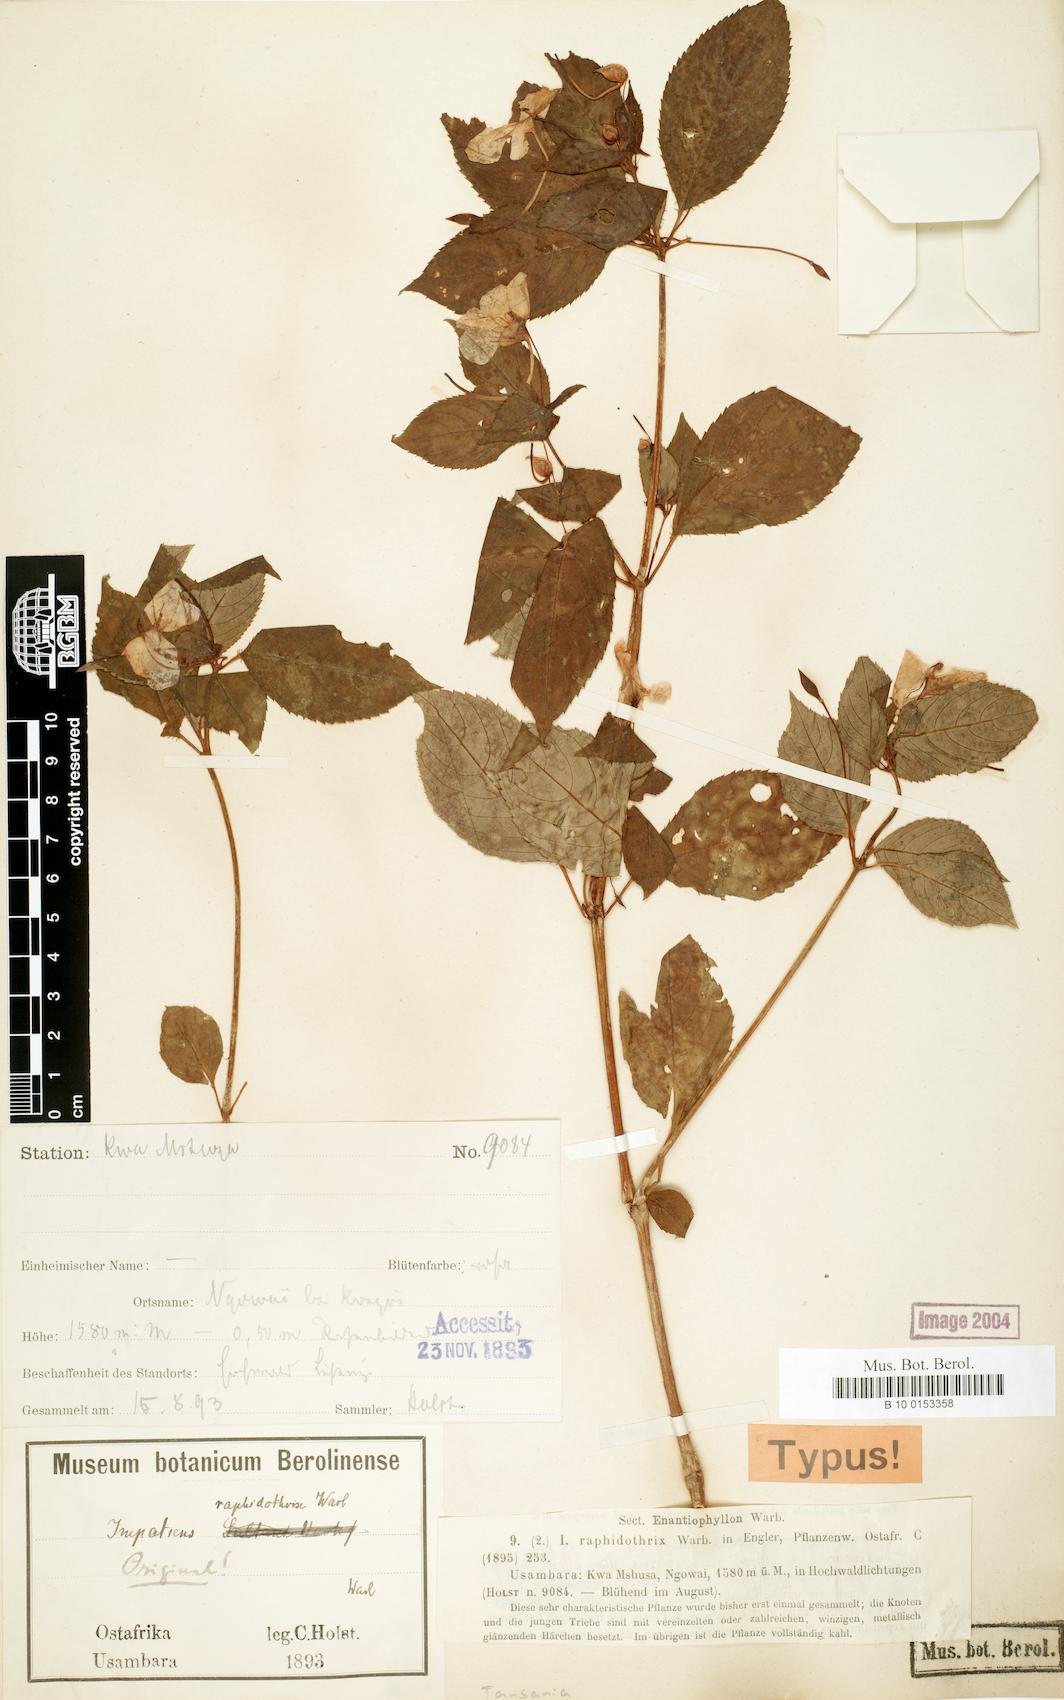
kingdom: Plantae
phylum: Tracheophyta
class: Magnoliopsida
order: Ericales
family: Balsaminaceae
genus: Impatiens
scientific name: Impatiens raphidothrix
